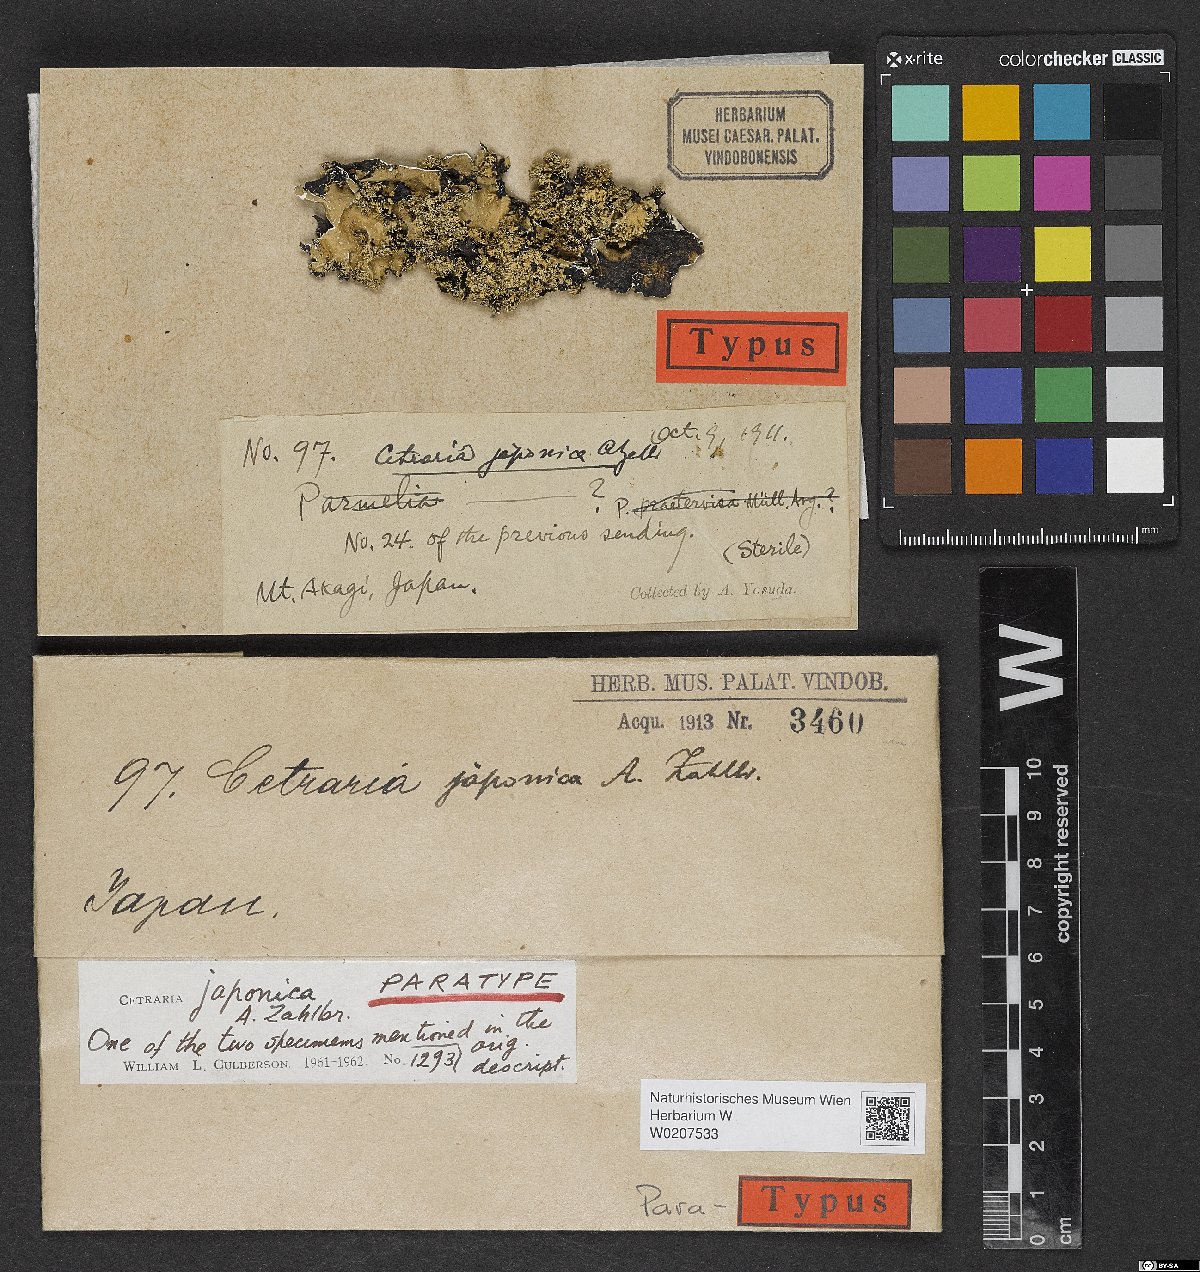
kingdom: Fungi
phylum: Ascomycota
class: Lecanoromycetes
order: Lecanorales
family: Parmeliaceae
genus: Cetrelia
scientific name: Cetrelia japonica
